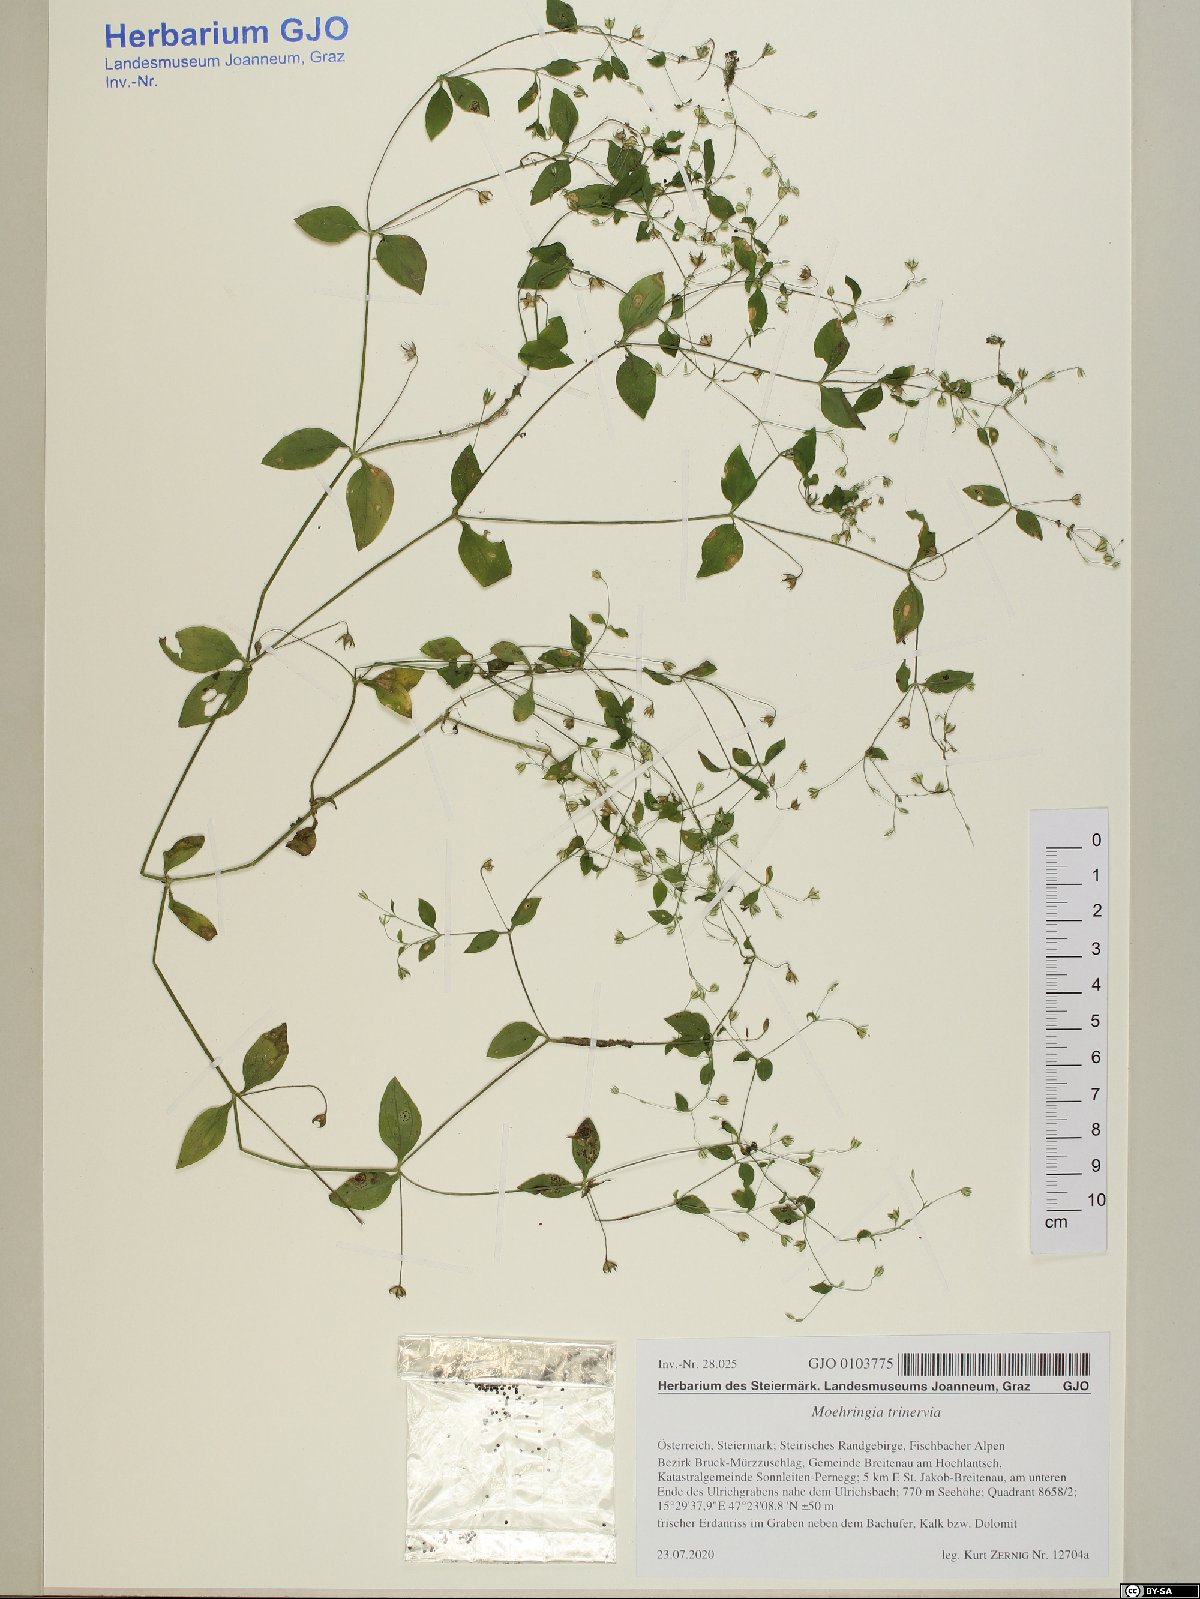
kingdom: Plantae
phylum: Tracheophyta
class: Magnoliopsida
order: Caryophyllales
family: Caryophyllaceae
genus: Moehringia
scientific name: Moehringia trinervia
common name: Three-nerved sandwort
